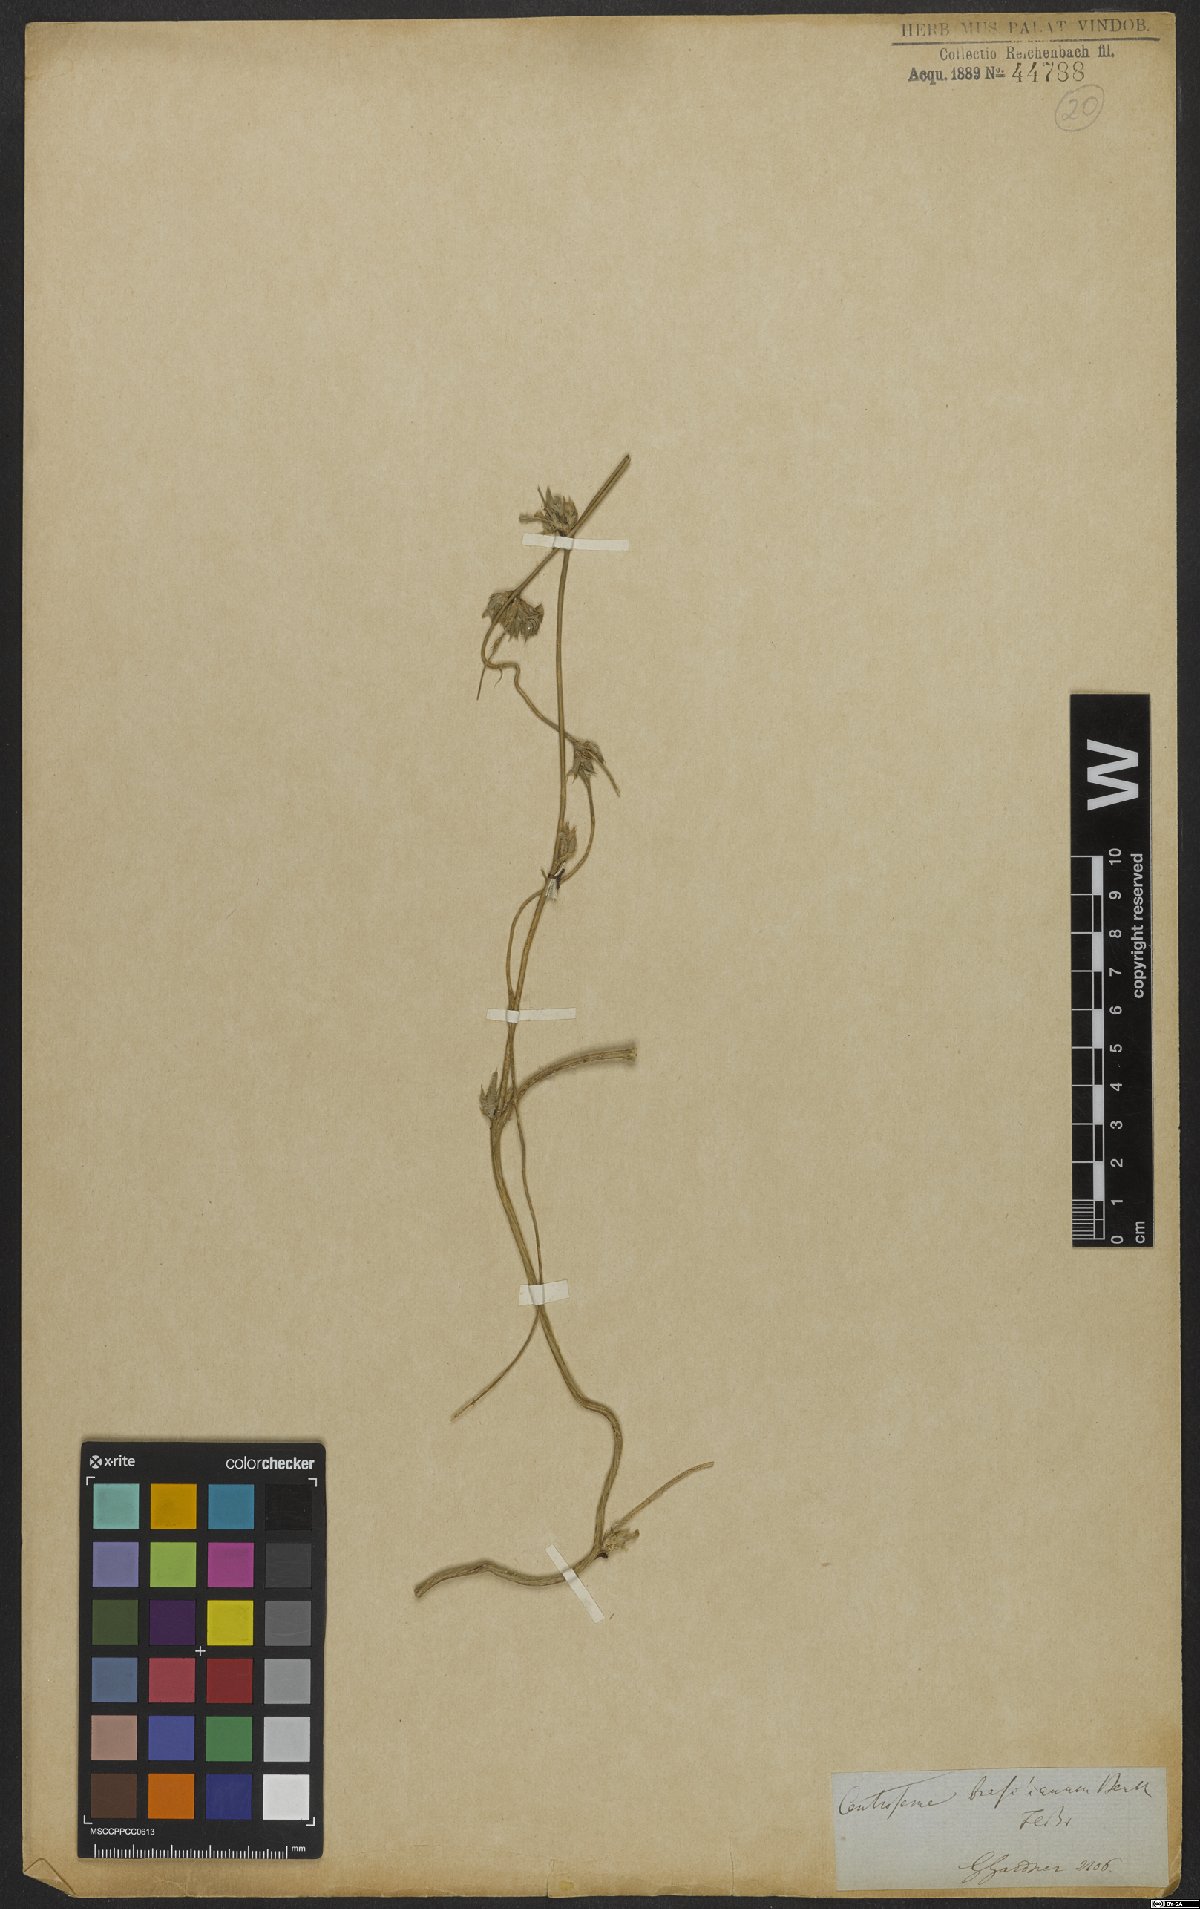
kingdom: Plantae
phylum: Tracheophyta
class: Magnoliopsida
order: Fabales
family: Fabaceae
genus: Centrosema
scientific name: Centrosema brasilianum
